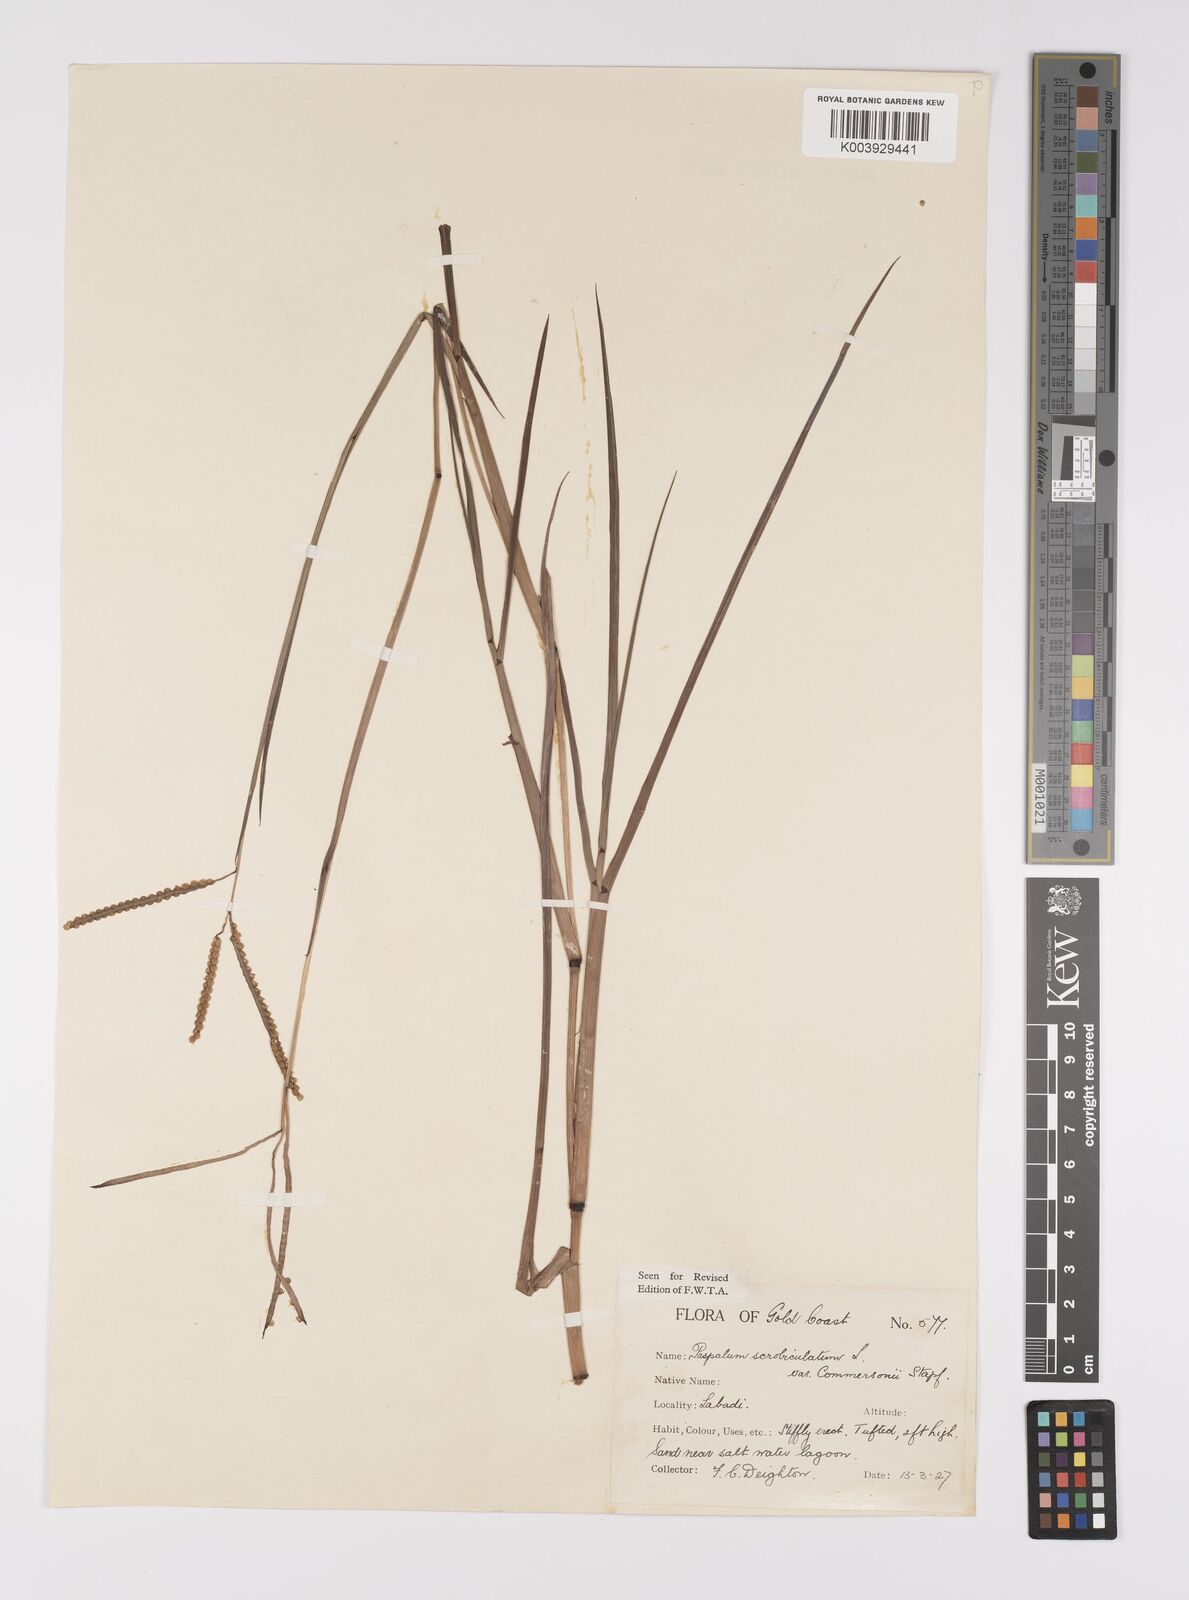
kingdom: Plantae
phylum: Tracheophyta
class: Liliopsida
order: Poales
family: Poaceae
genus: Paspalum
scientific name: Paspalum scrobiculatum
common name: Kodo millet
